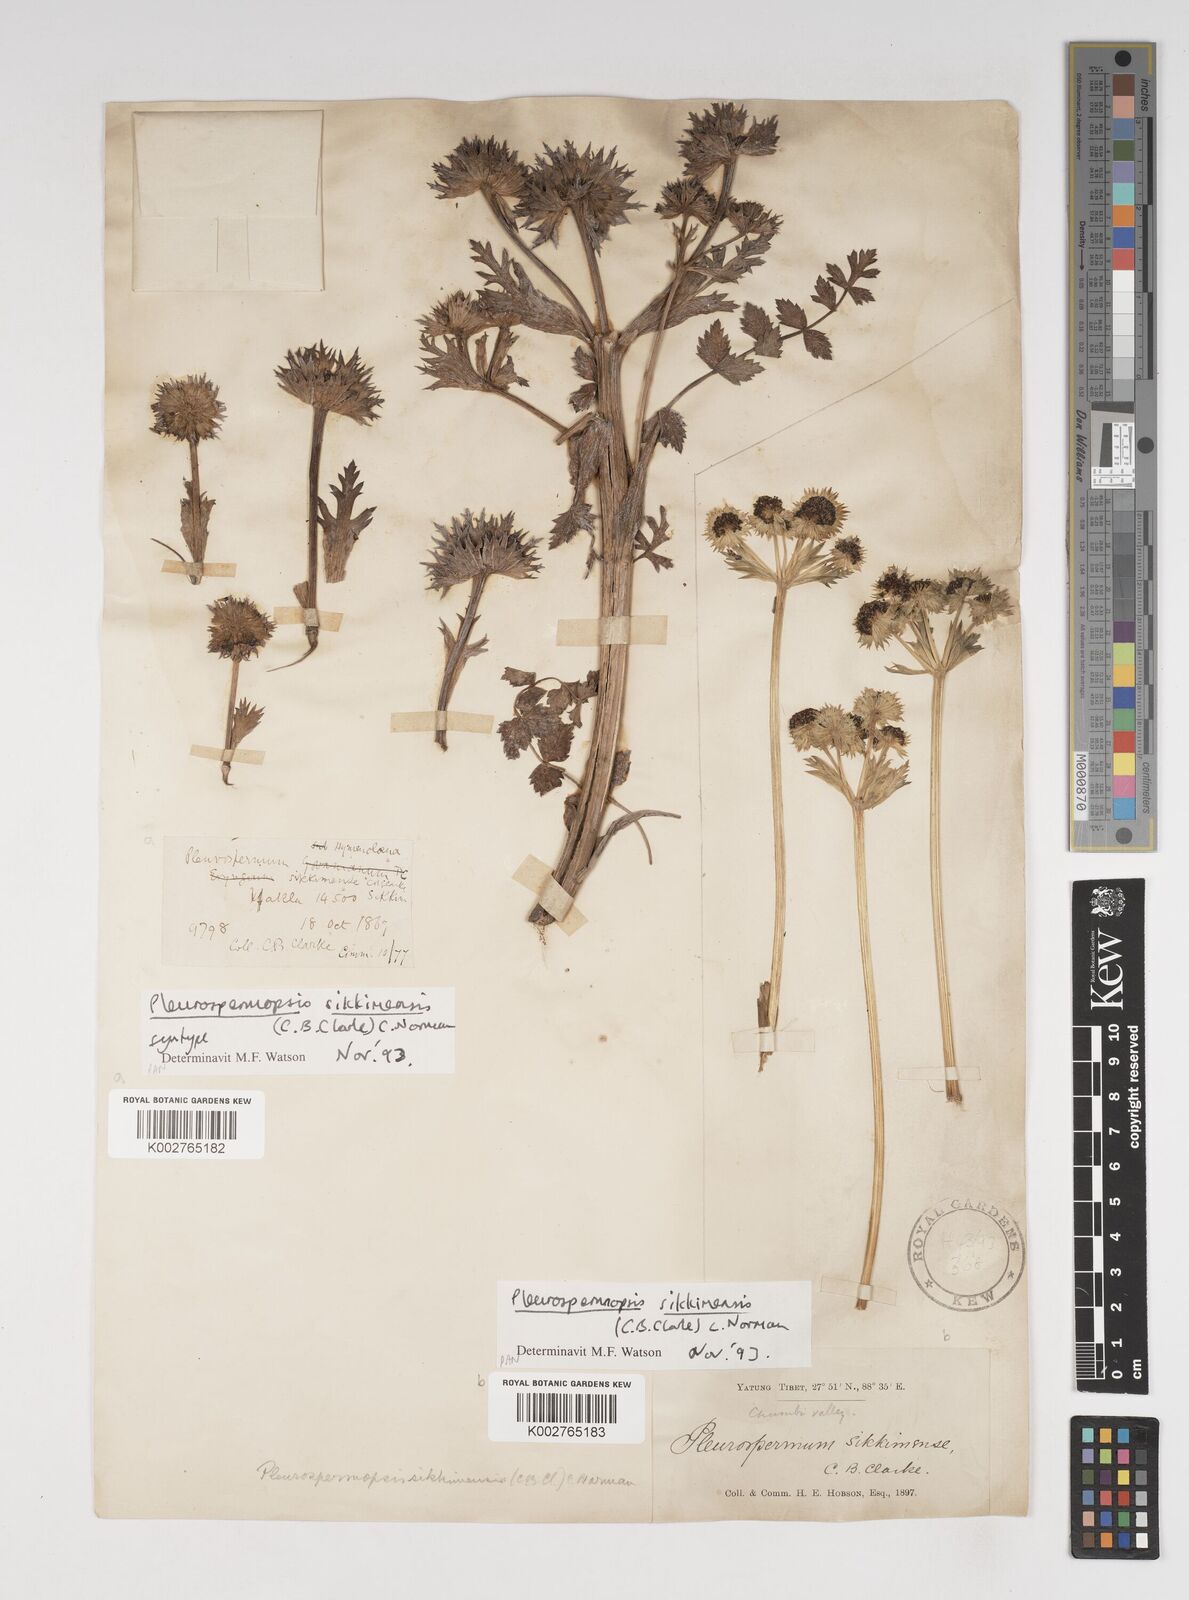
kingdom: Plantae
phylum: Tracheophyta
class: Magnoliopsida
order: Apiales
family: Apiaceae
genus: Pleurospermopsis
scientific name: Pleurospermopsis sikkimensis
